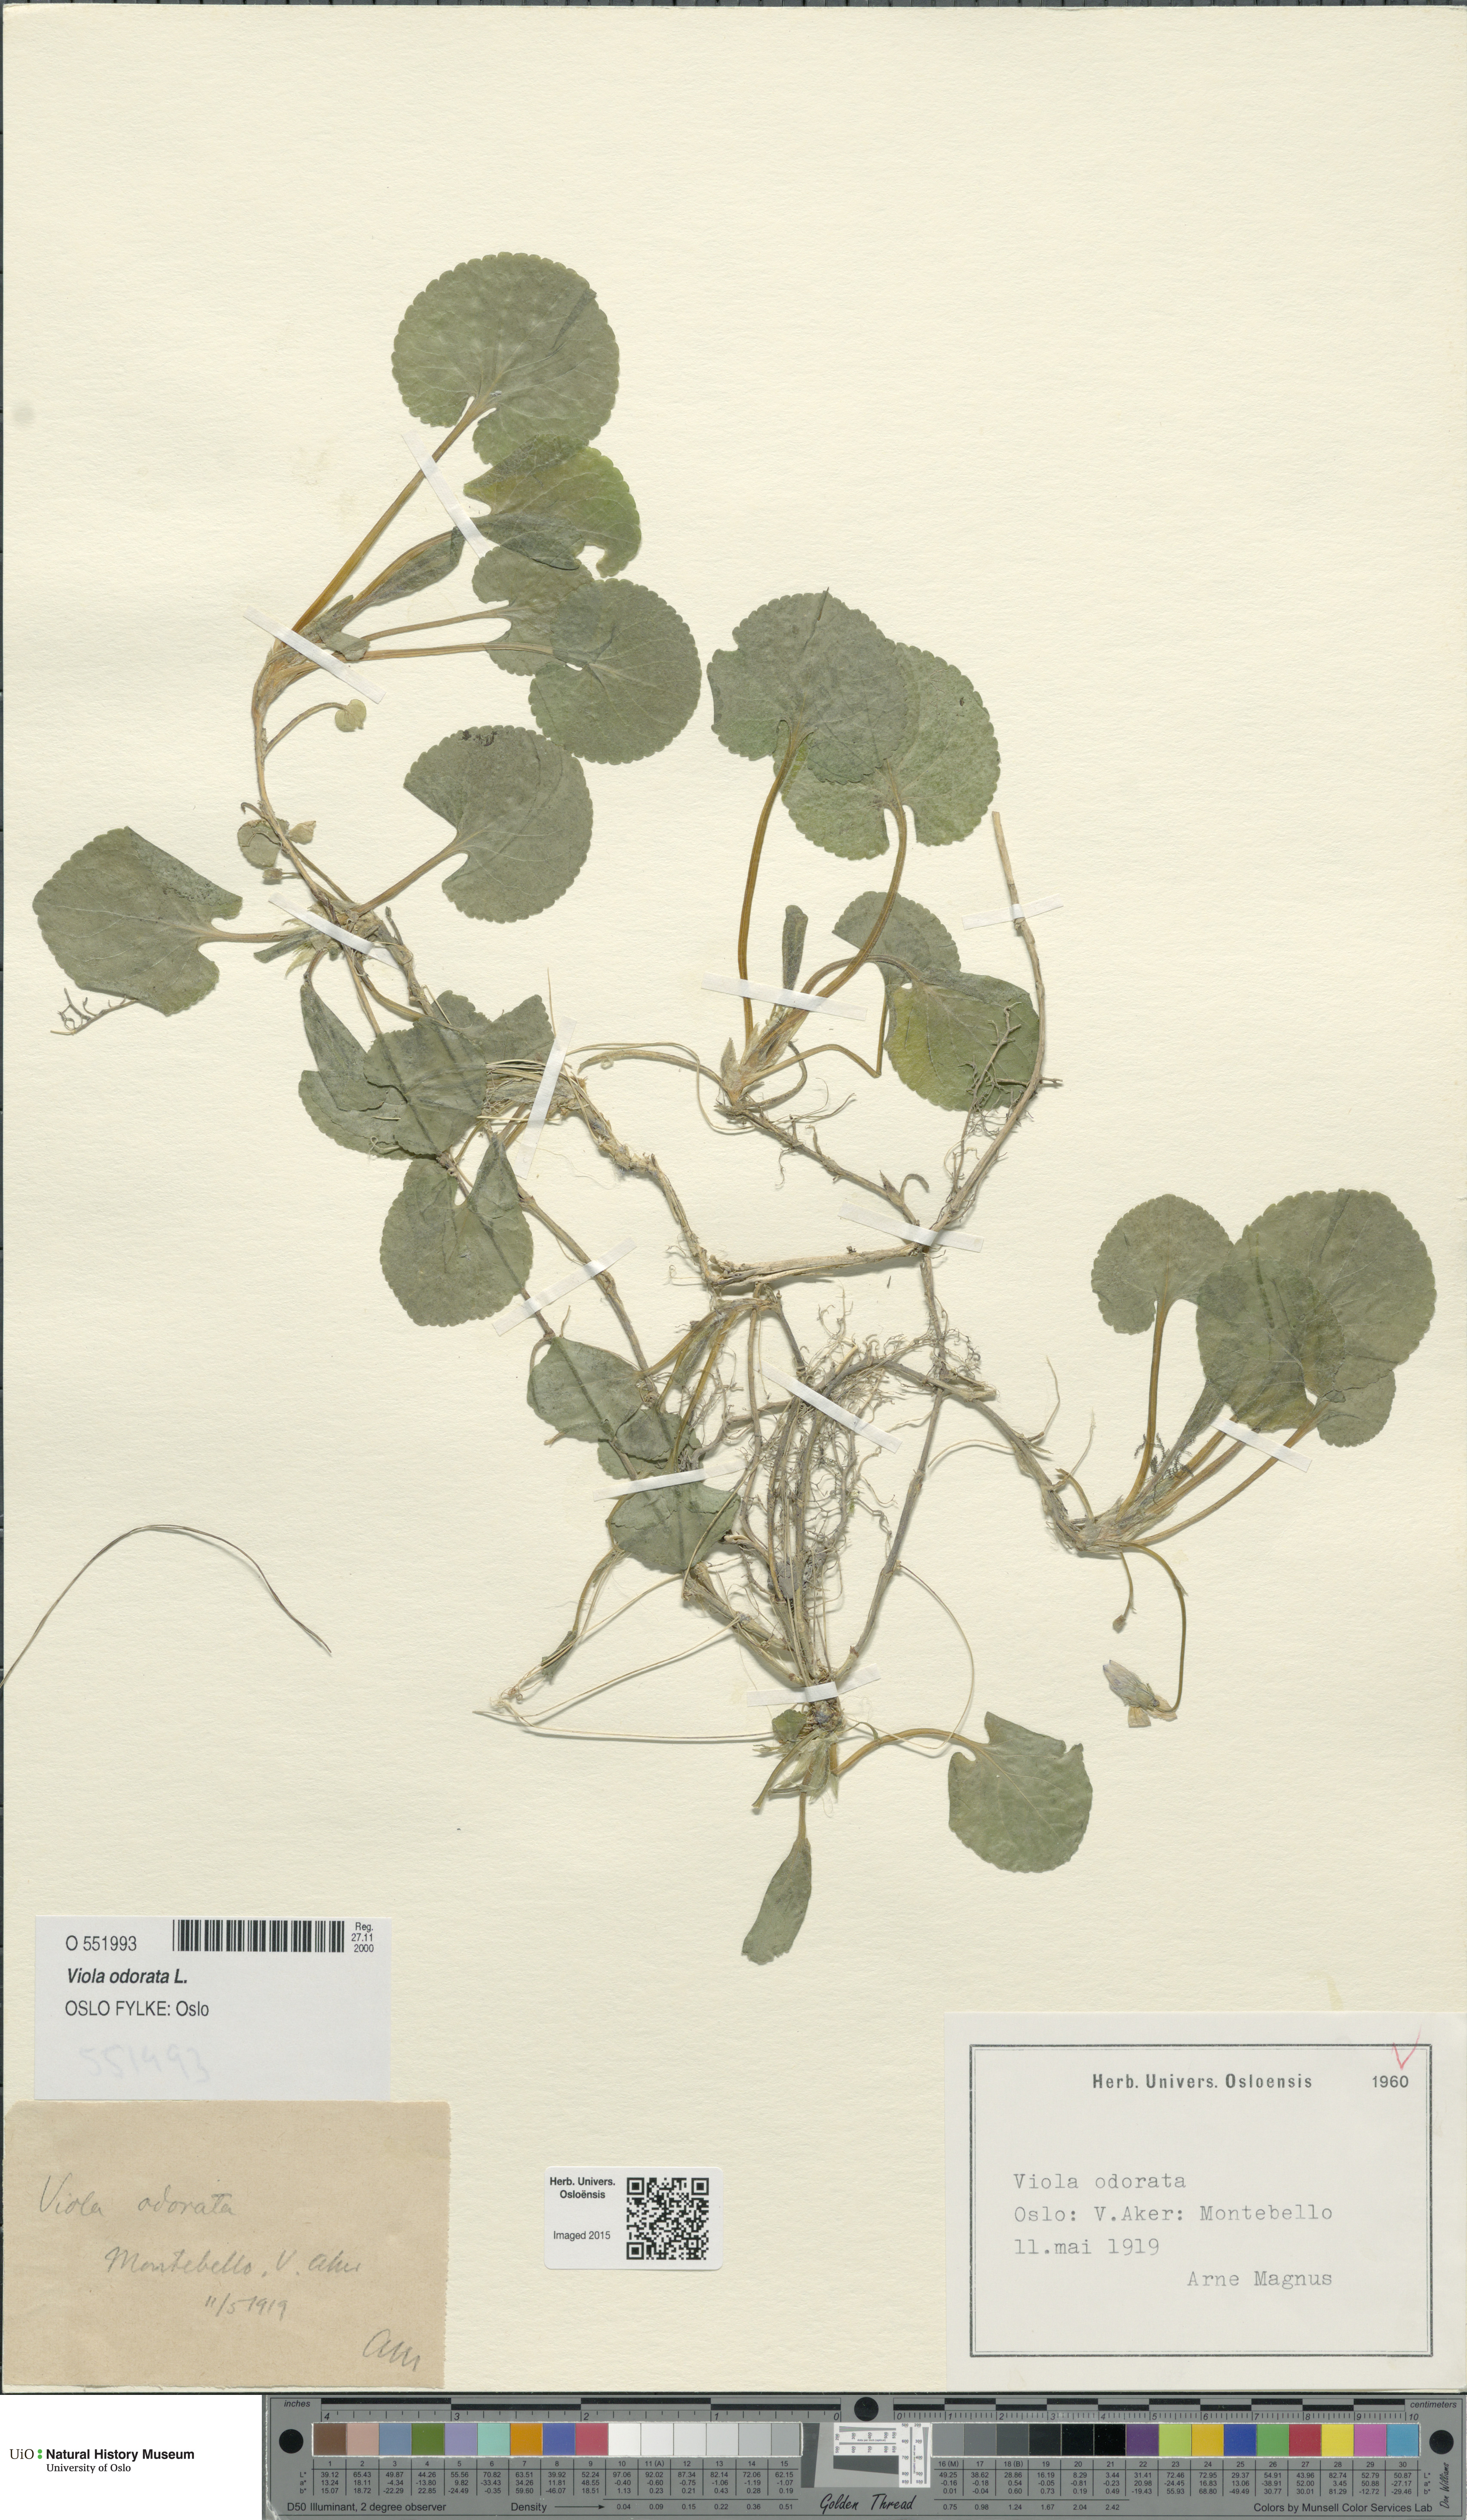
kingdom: Plantae
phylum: Tracheophyta
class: Magnoliopsida
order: Malpighiales
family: Violaceae
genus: Viola
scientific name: Viola odorata
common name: Sweet violet
